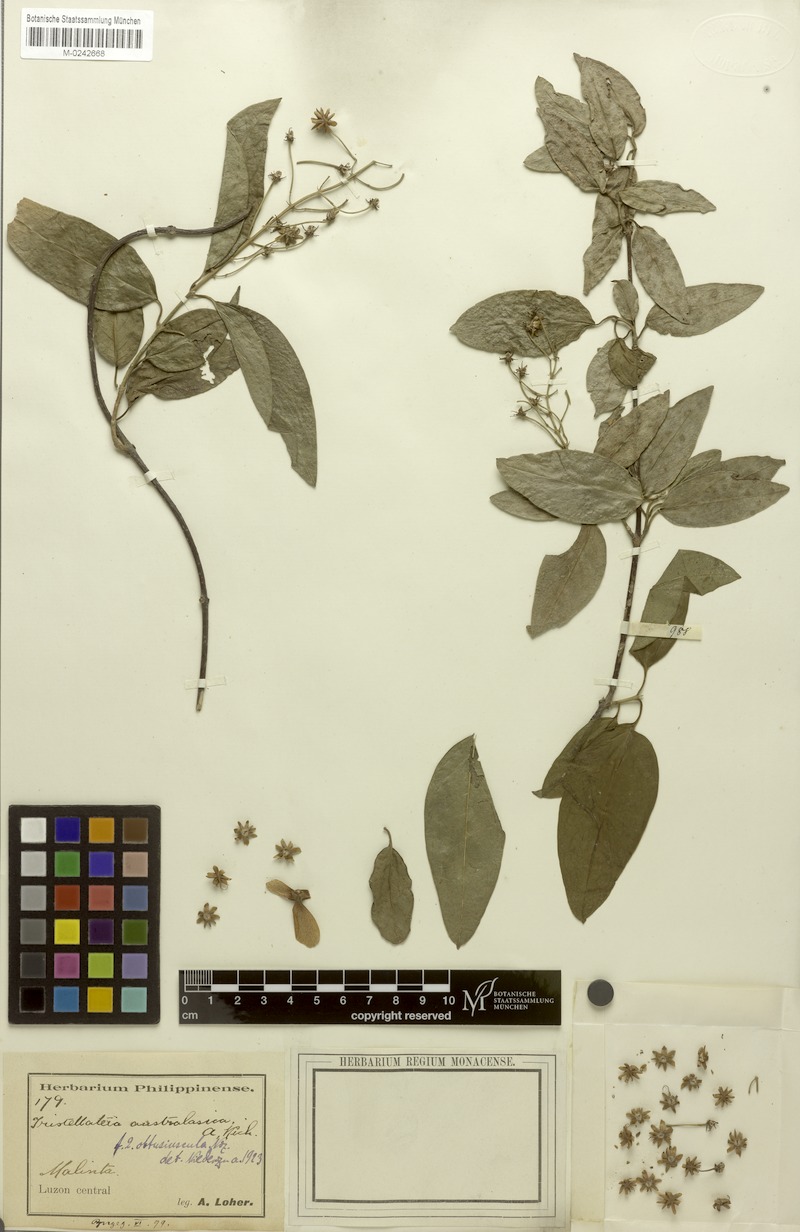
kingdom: Plantae
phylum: Tracheophyta
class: Magnoliopsida
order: Malpighiales
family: Malpighiaceae
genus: Tristellateia
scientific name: Tristellateia australasiae
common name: Australian goldvine
